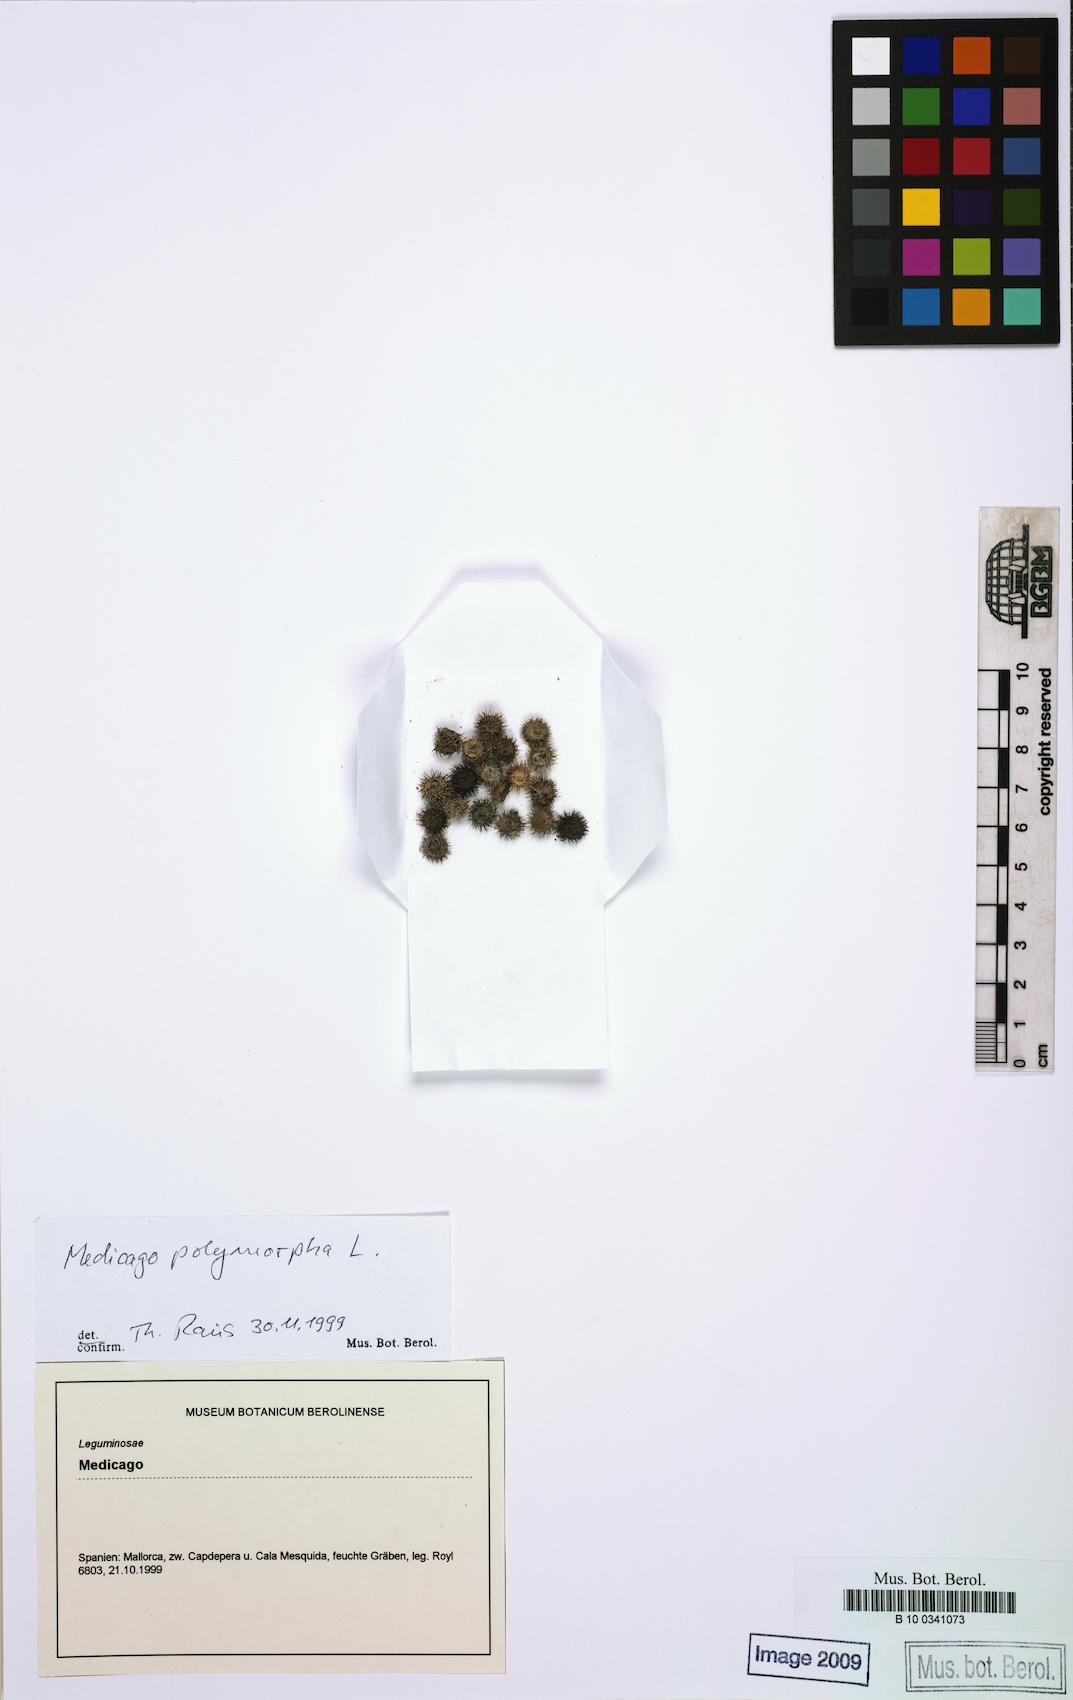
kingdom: Plantae
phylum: Tracheophyta
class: Magnoliopsida
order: Fabales
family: Fabaceae
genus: Medicago
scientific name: Medicago polymorpha
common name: Burclover
